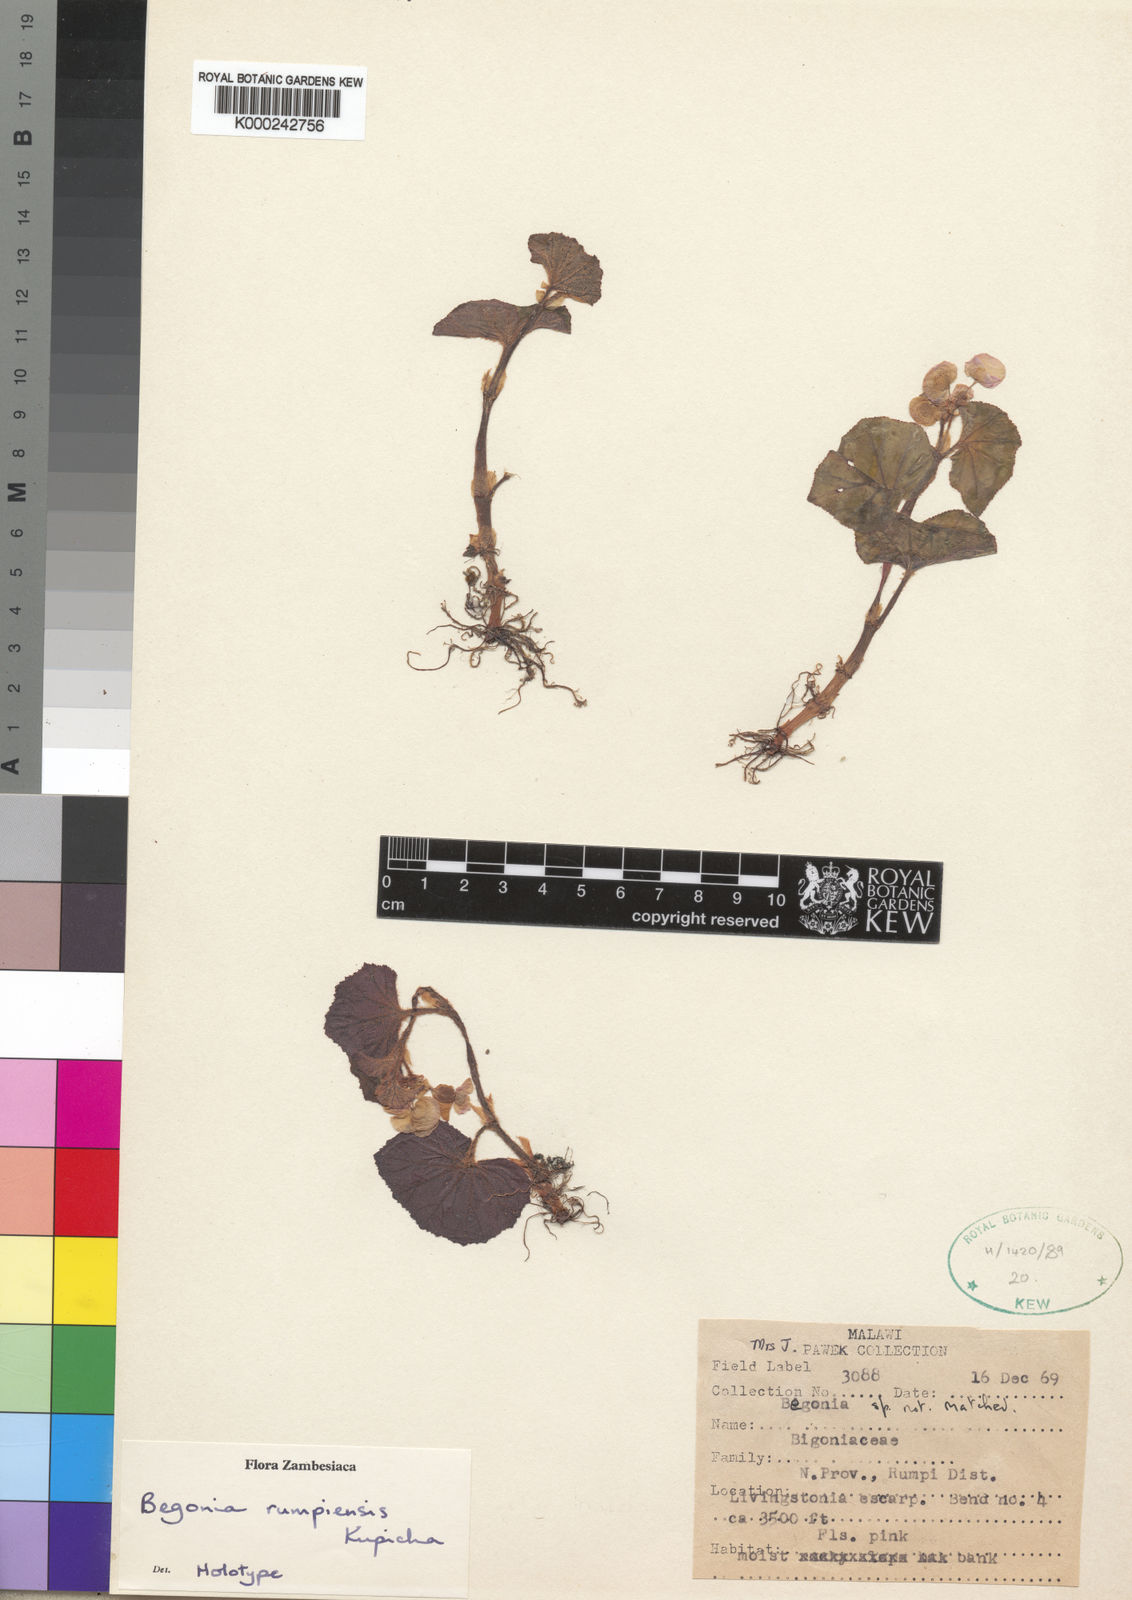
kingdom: Plantae
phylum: Tracheophyta
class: Magnoliopsida
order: Cucurbitales
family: Begoniaceae
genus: Begonia
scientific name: Begonia rumpiensis
